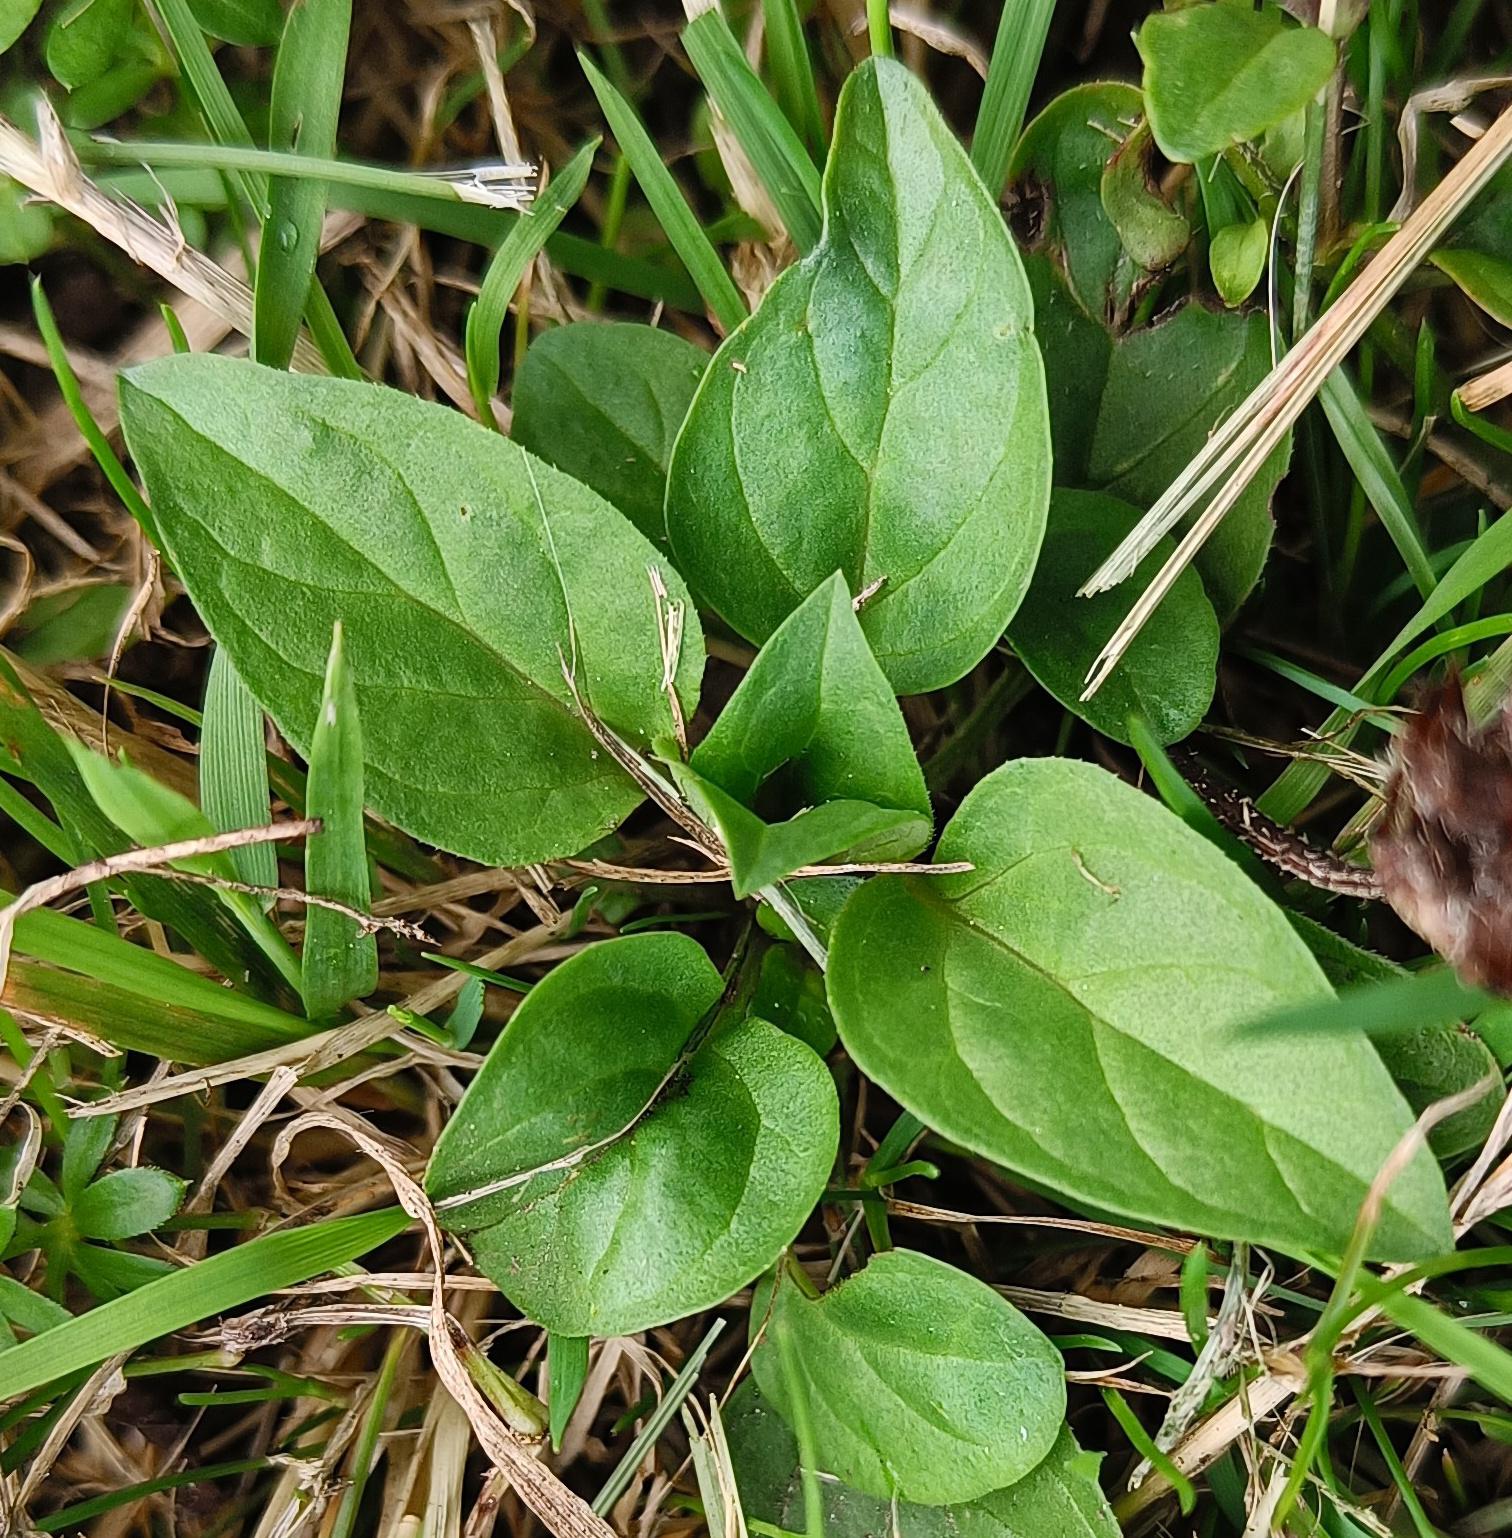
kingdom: Plantae
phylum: Tracheophyta
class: Magnoliopsida
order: Lamiales
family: Lamiaceae
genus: Prunella
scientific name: Prunella vulgaris
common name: Almindelig brunelle
